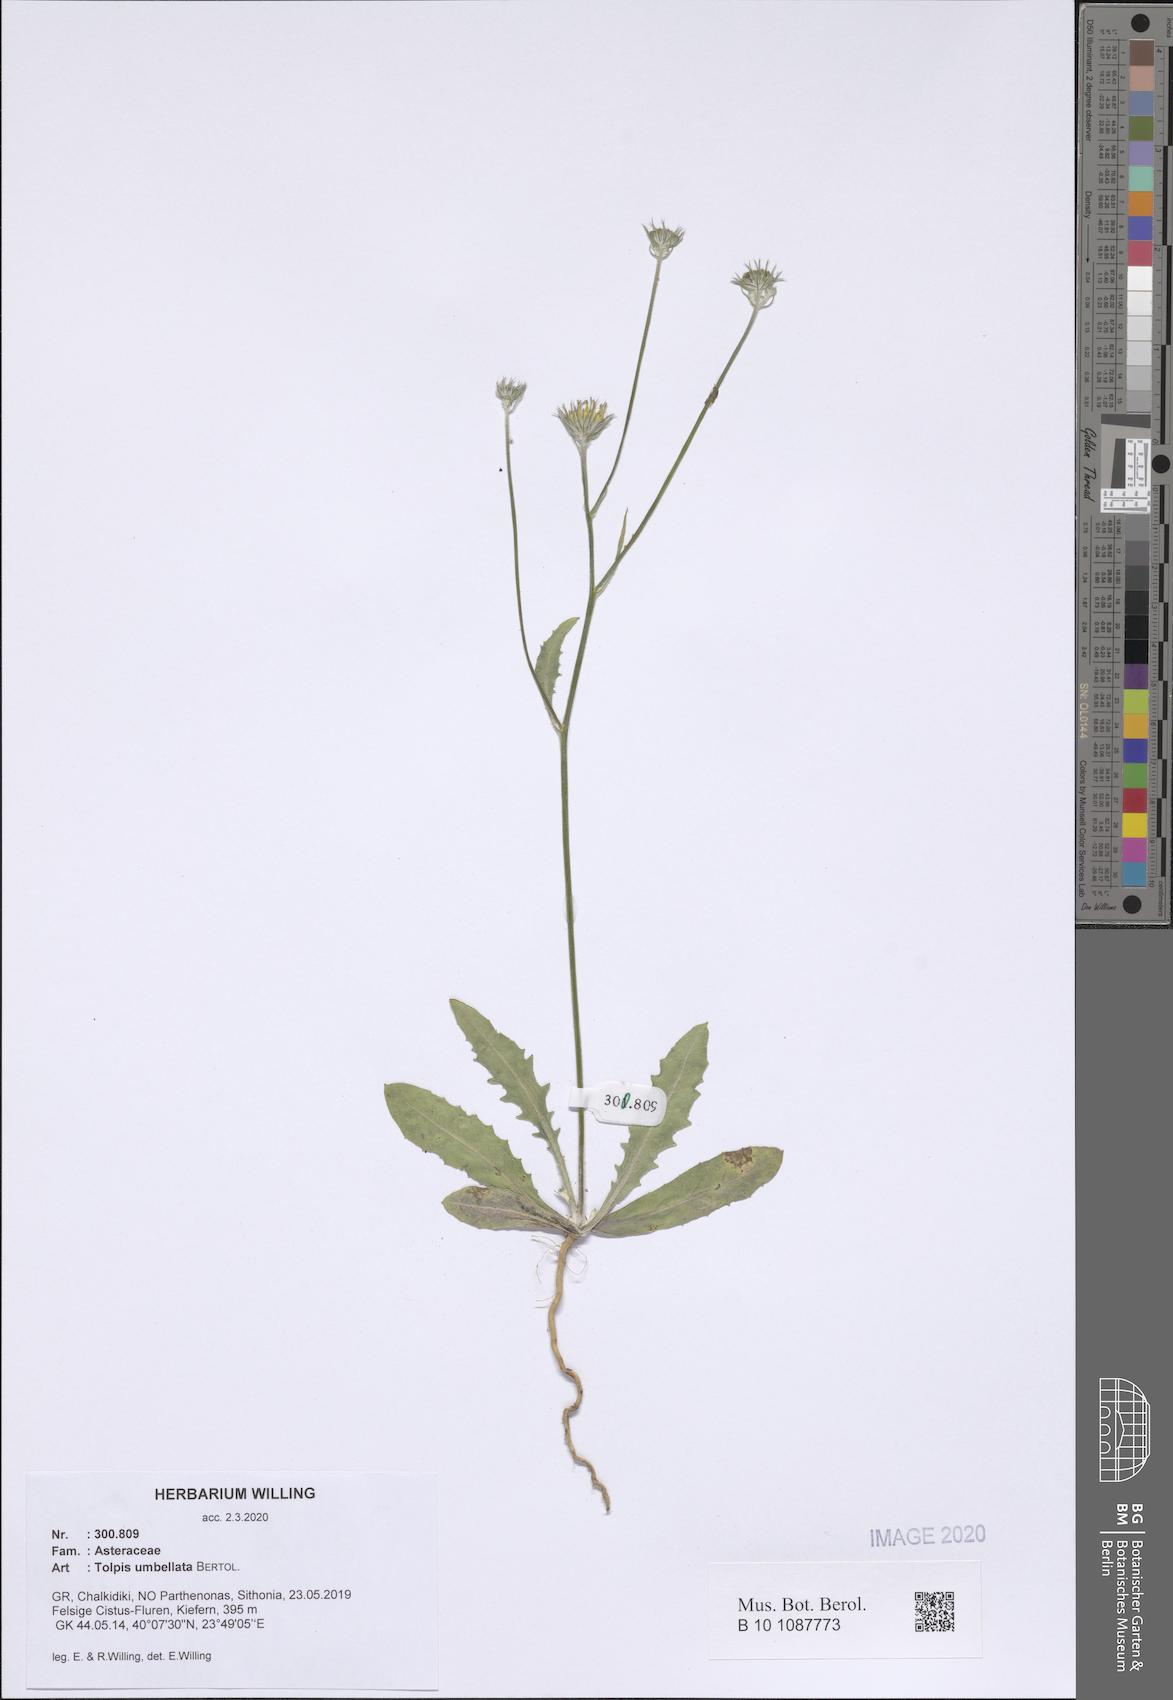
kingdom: Plantae
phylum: Tracheophyta
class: Magnoliopsida
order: Asterales
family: Asteraceae
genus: Tolpis
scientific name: Tolpis umbellata
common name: Yellow hawkweed
